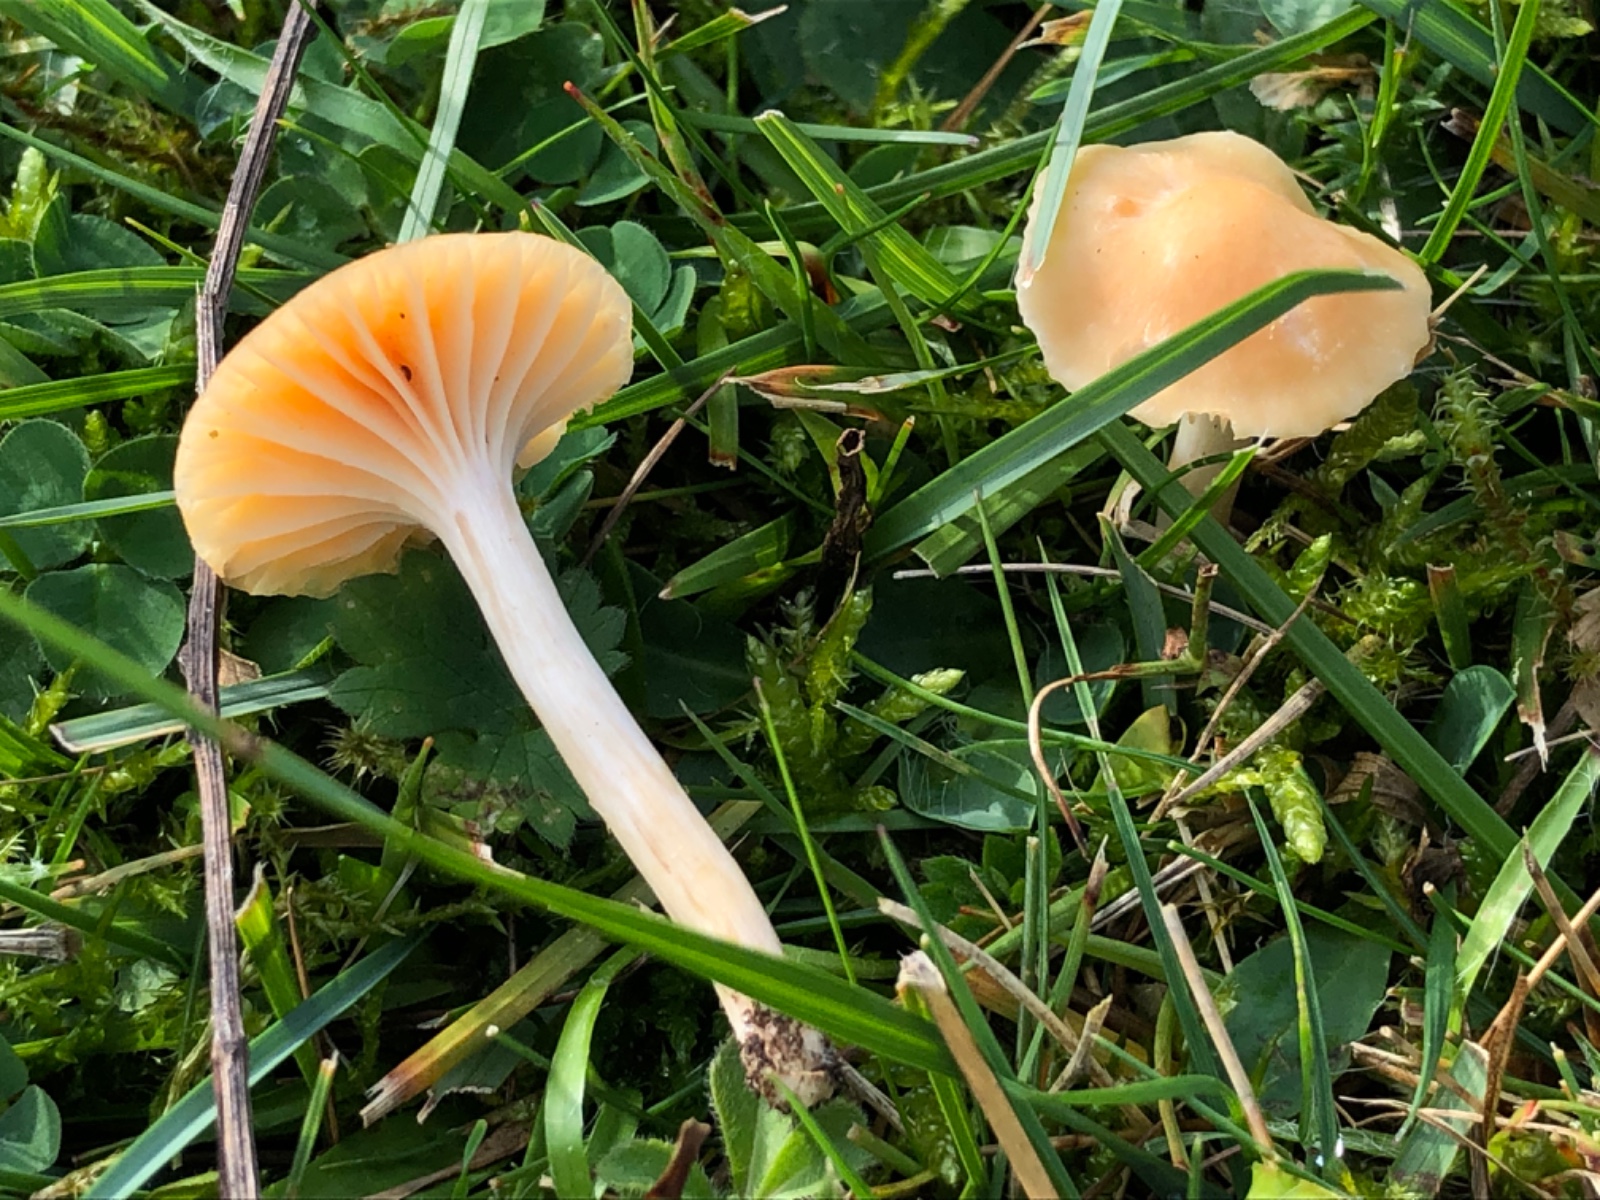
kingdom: Fungi
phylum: Basidiomycota
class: Agaricomycetes
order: Agaricales
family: Hygrophoraceae
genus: Cuphophyllus
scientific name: Cuphophyllus pratensis
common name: eng-vokshat
